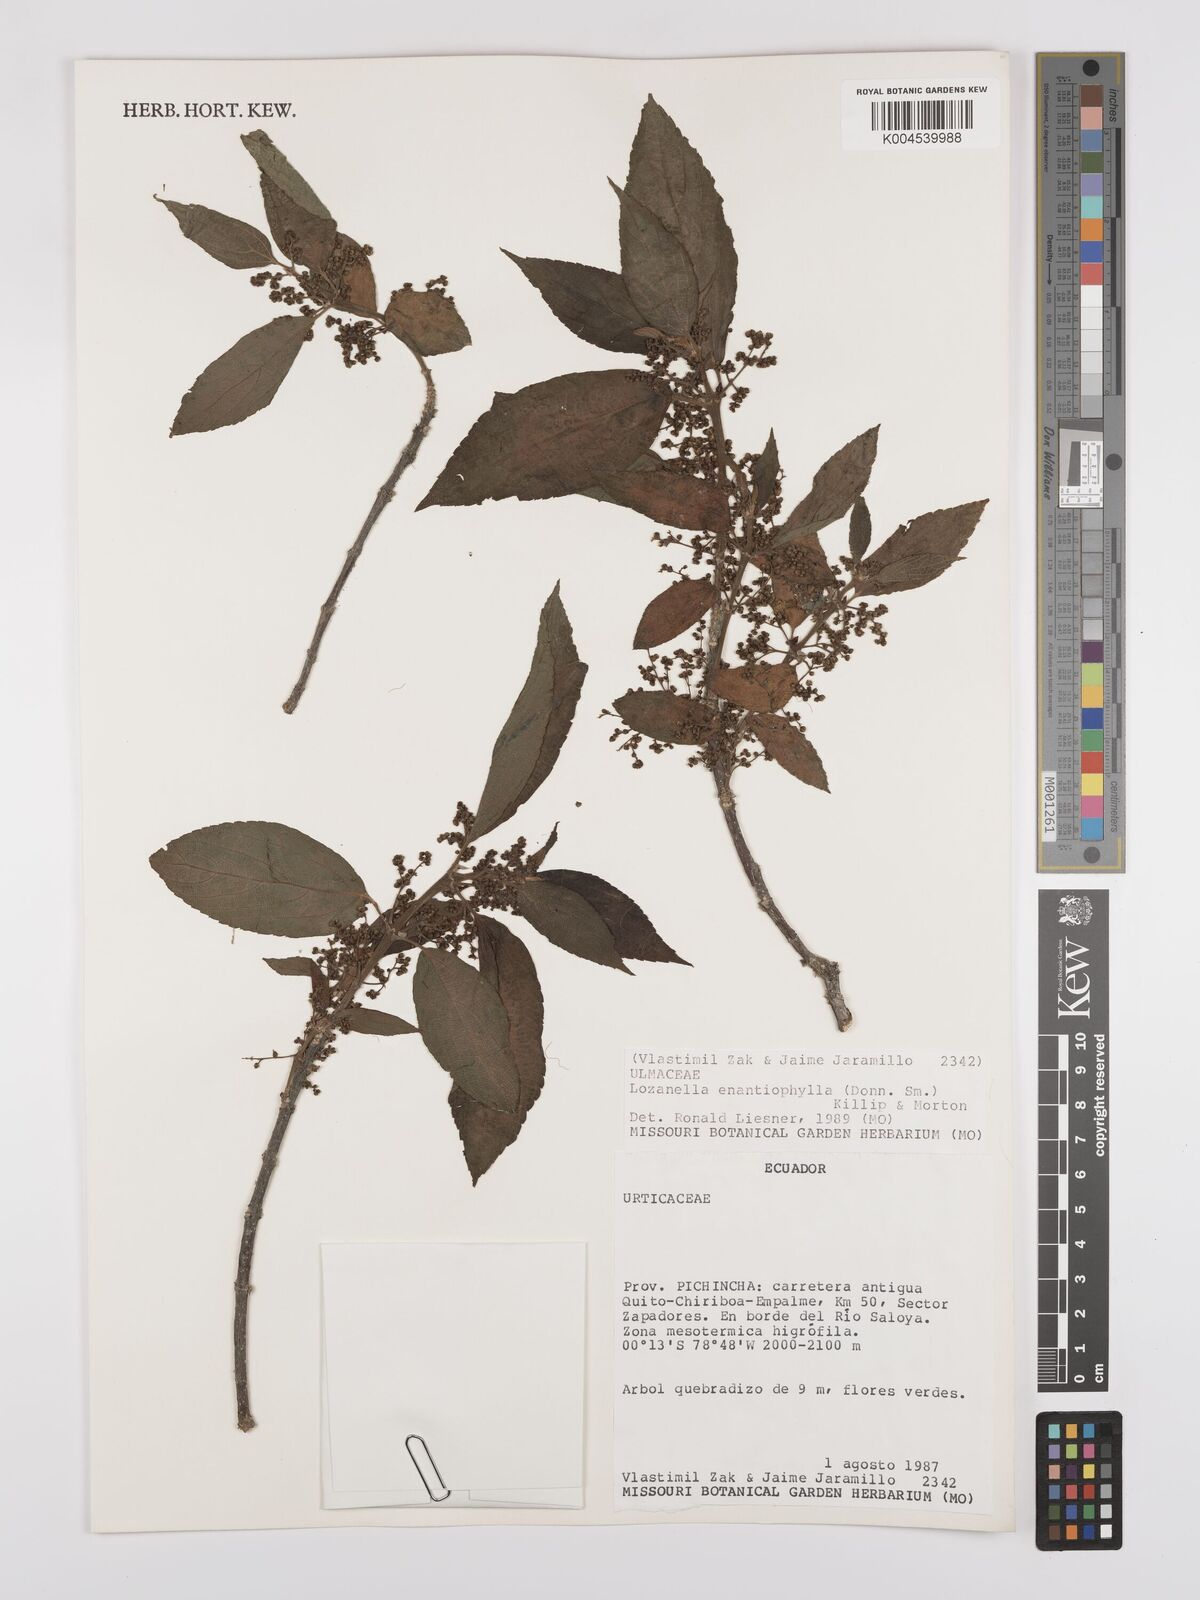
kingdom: Plantae
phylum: Tracheophyta
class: Magnoliopsida
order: Rosales
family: Cannabaceae
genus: Lozanella
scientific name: Lozanella enantiophylla
